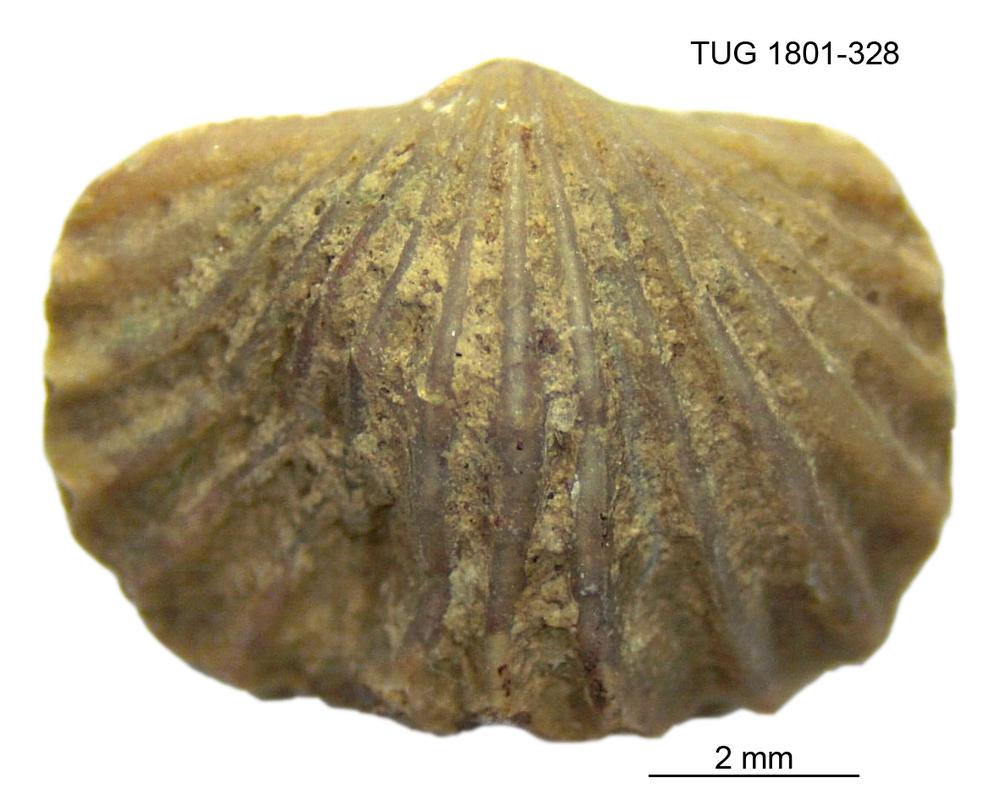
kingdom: Animalia
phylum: Brachiopoda
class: Rhynchonellata
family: Plectorthidae
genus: Platystrophia
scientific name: Platystrophia dentata
